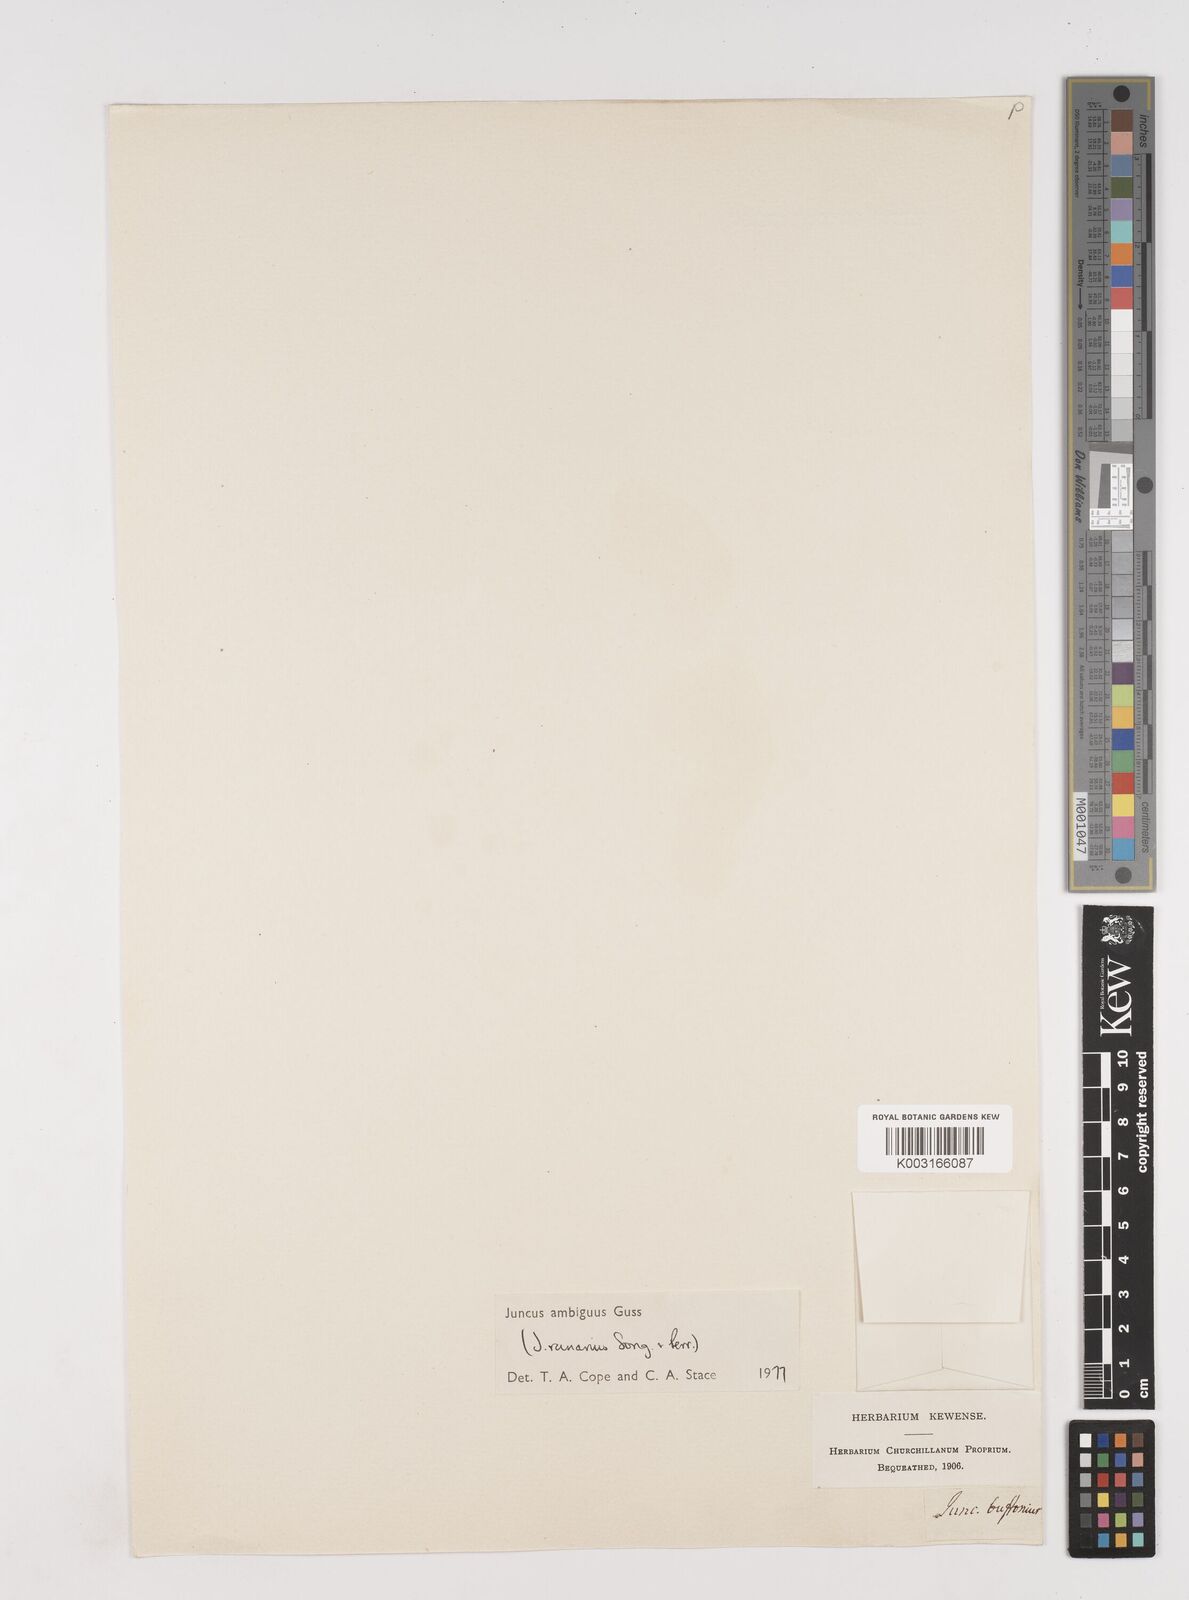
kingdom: Plantae
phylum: Tracheophyta
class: Liliopsida
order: Poales
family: Juncaceae
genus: Juncus
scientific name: Juncus hybridus
